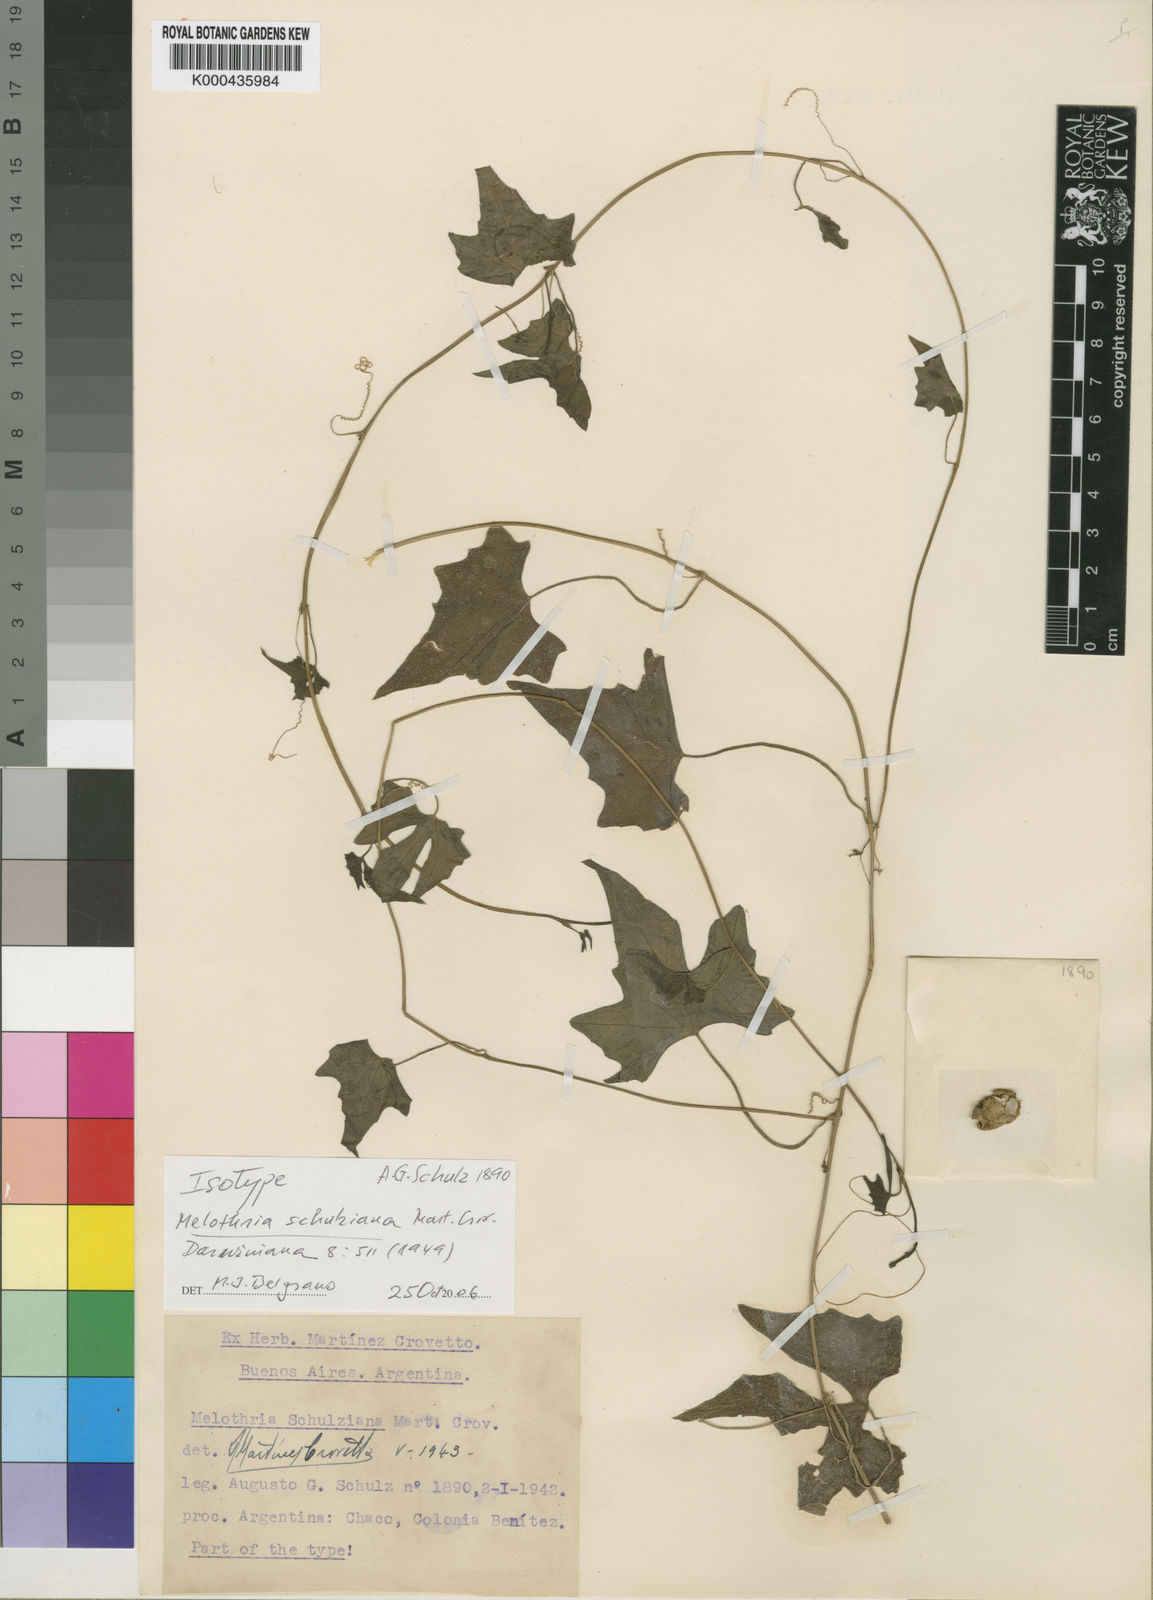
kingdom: Plantae
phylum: Tracheophyta
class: Magnoliopsida
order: Cucurbitales
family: Cucurbitaceae
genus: Melothria
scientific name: Melothria schulziana
